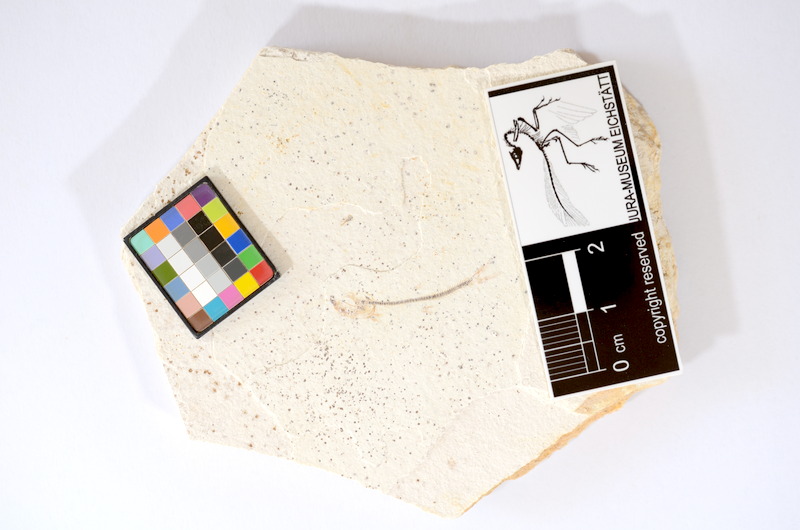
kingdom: Animalia
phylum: Chordata
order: Salmoniformes
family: Orthogonikleithridae
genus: Orthogonikleithrus
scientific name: Orthogonikleithrus hoelli
